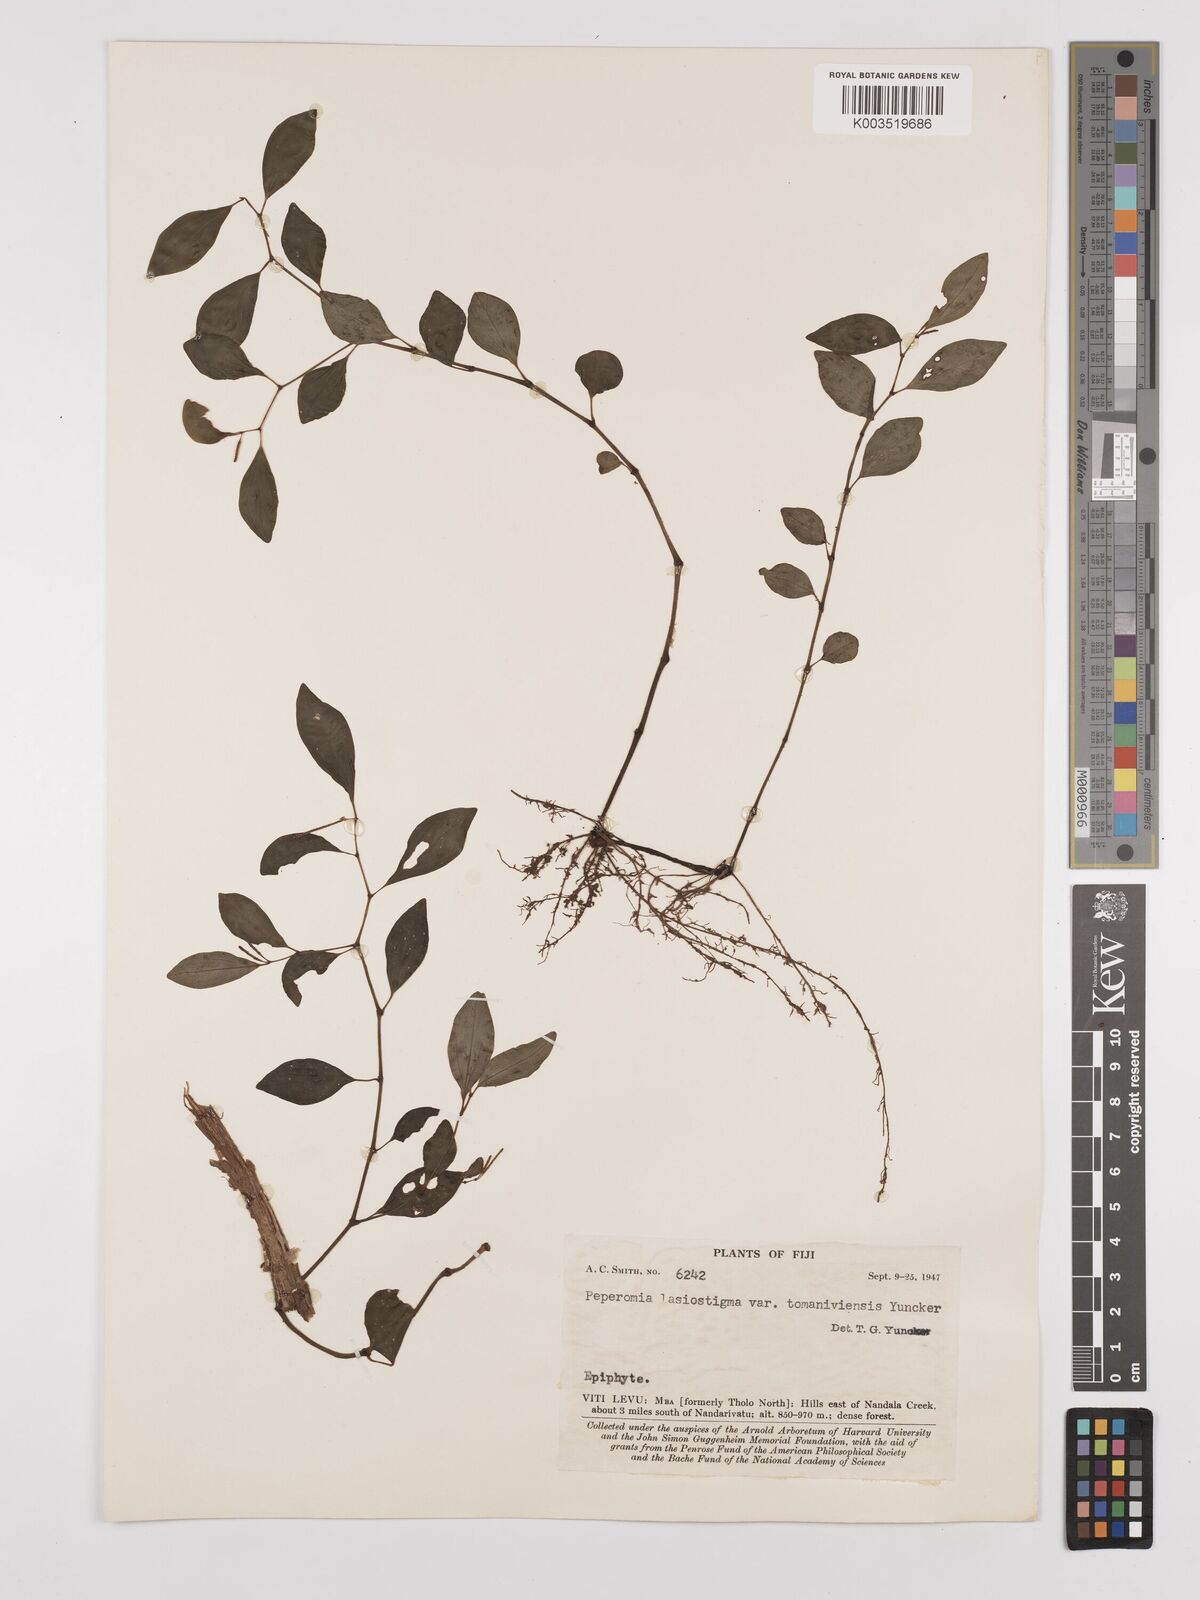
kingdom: Plantae
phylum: Tracheophyta
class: Magnoliopsida
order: Piperales
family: Piperaceae
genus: Peperomia
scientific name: Peperomia lasiostigma
